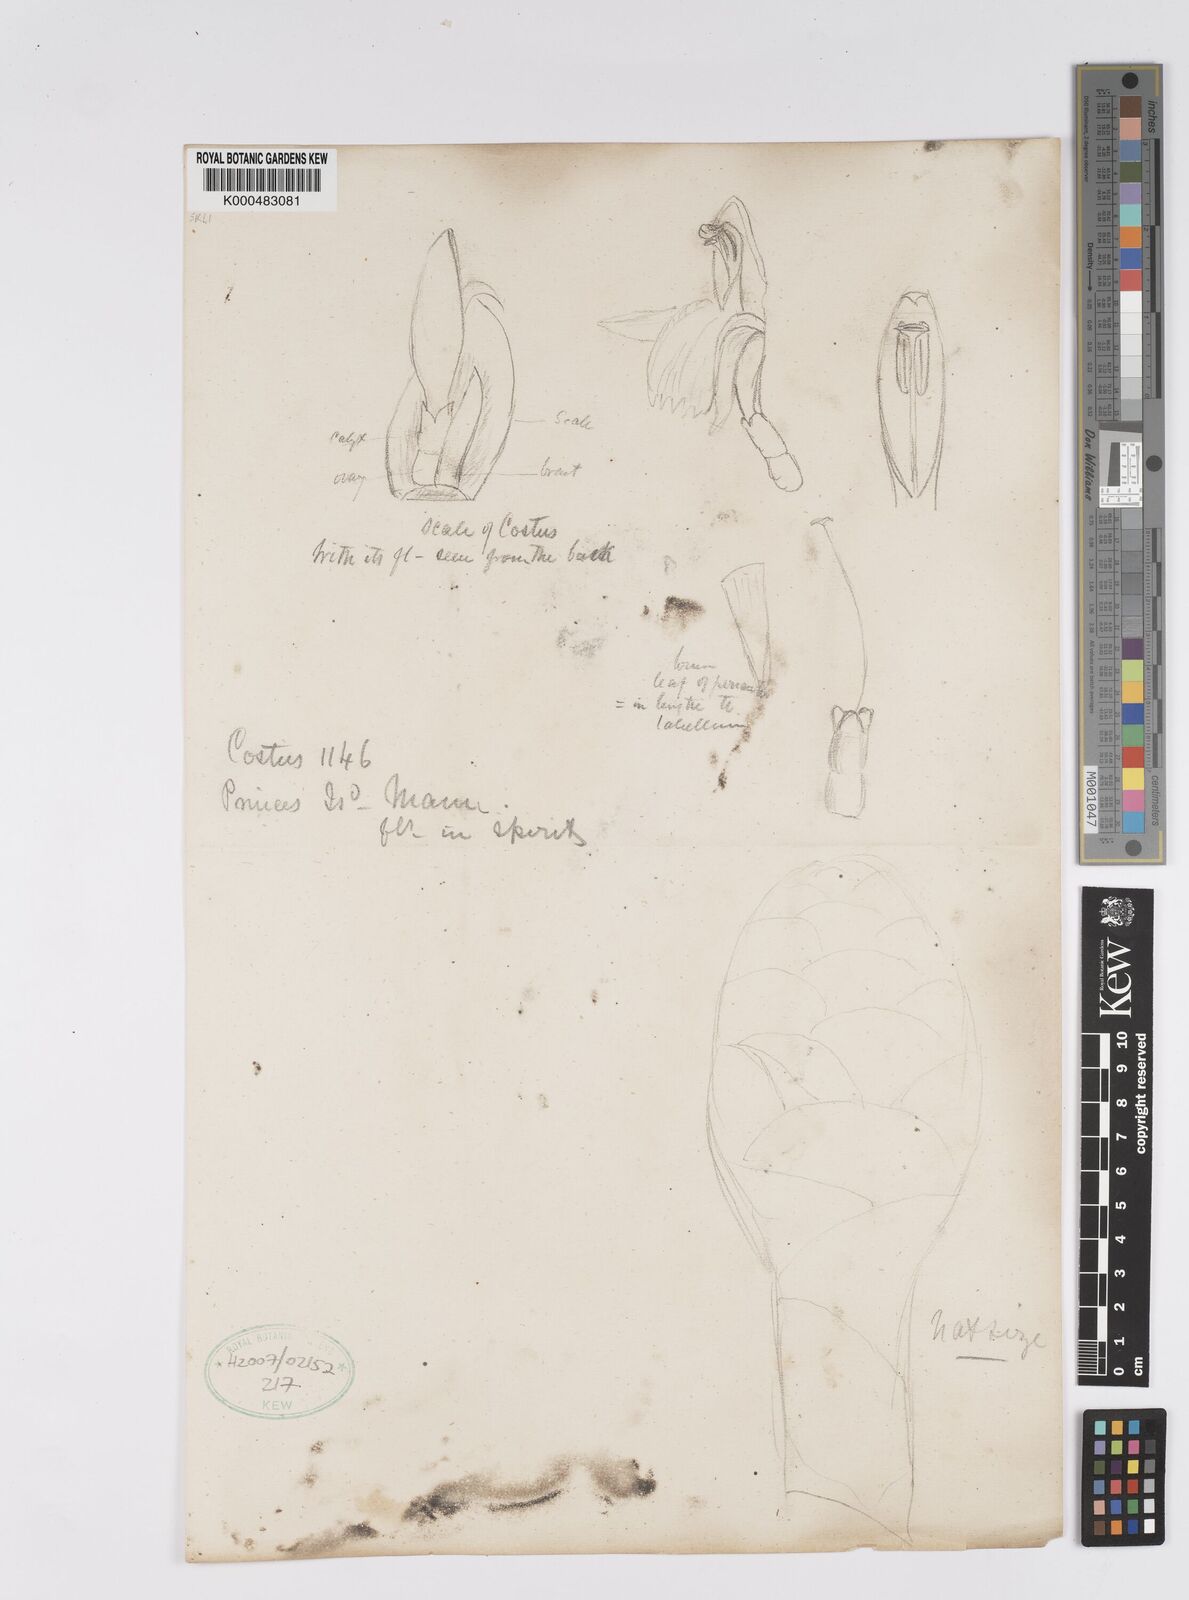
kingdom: Plantae
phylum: Tracheophyta
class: Liliopsida
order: Zingiberales
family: Costaceae
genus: Costus
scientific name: Costus giganteus
